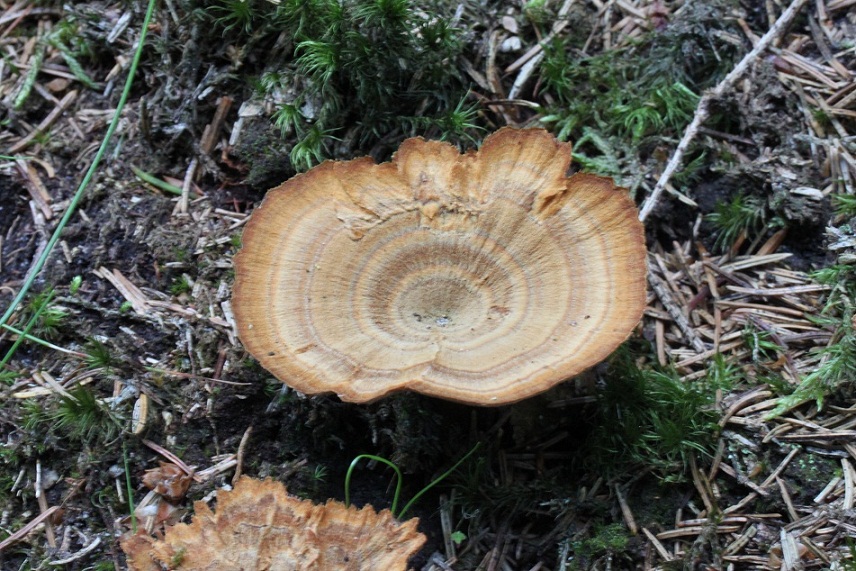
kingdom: Fungi
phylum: Basidiomycota
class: Agaricomycetes
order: Hymenochaetales
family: Hymenochaetaceae
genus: Coltricia
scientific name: Coltricia perennis
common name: almindelig sandporesvamp
